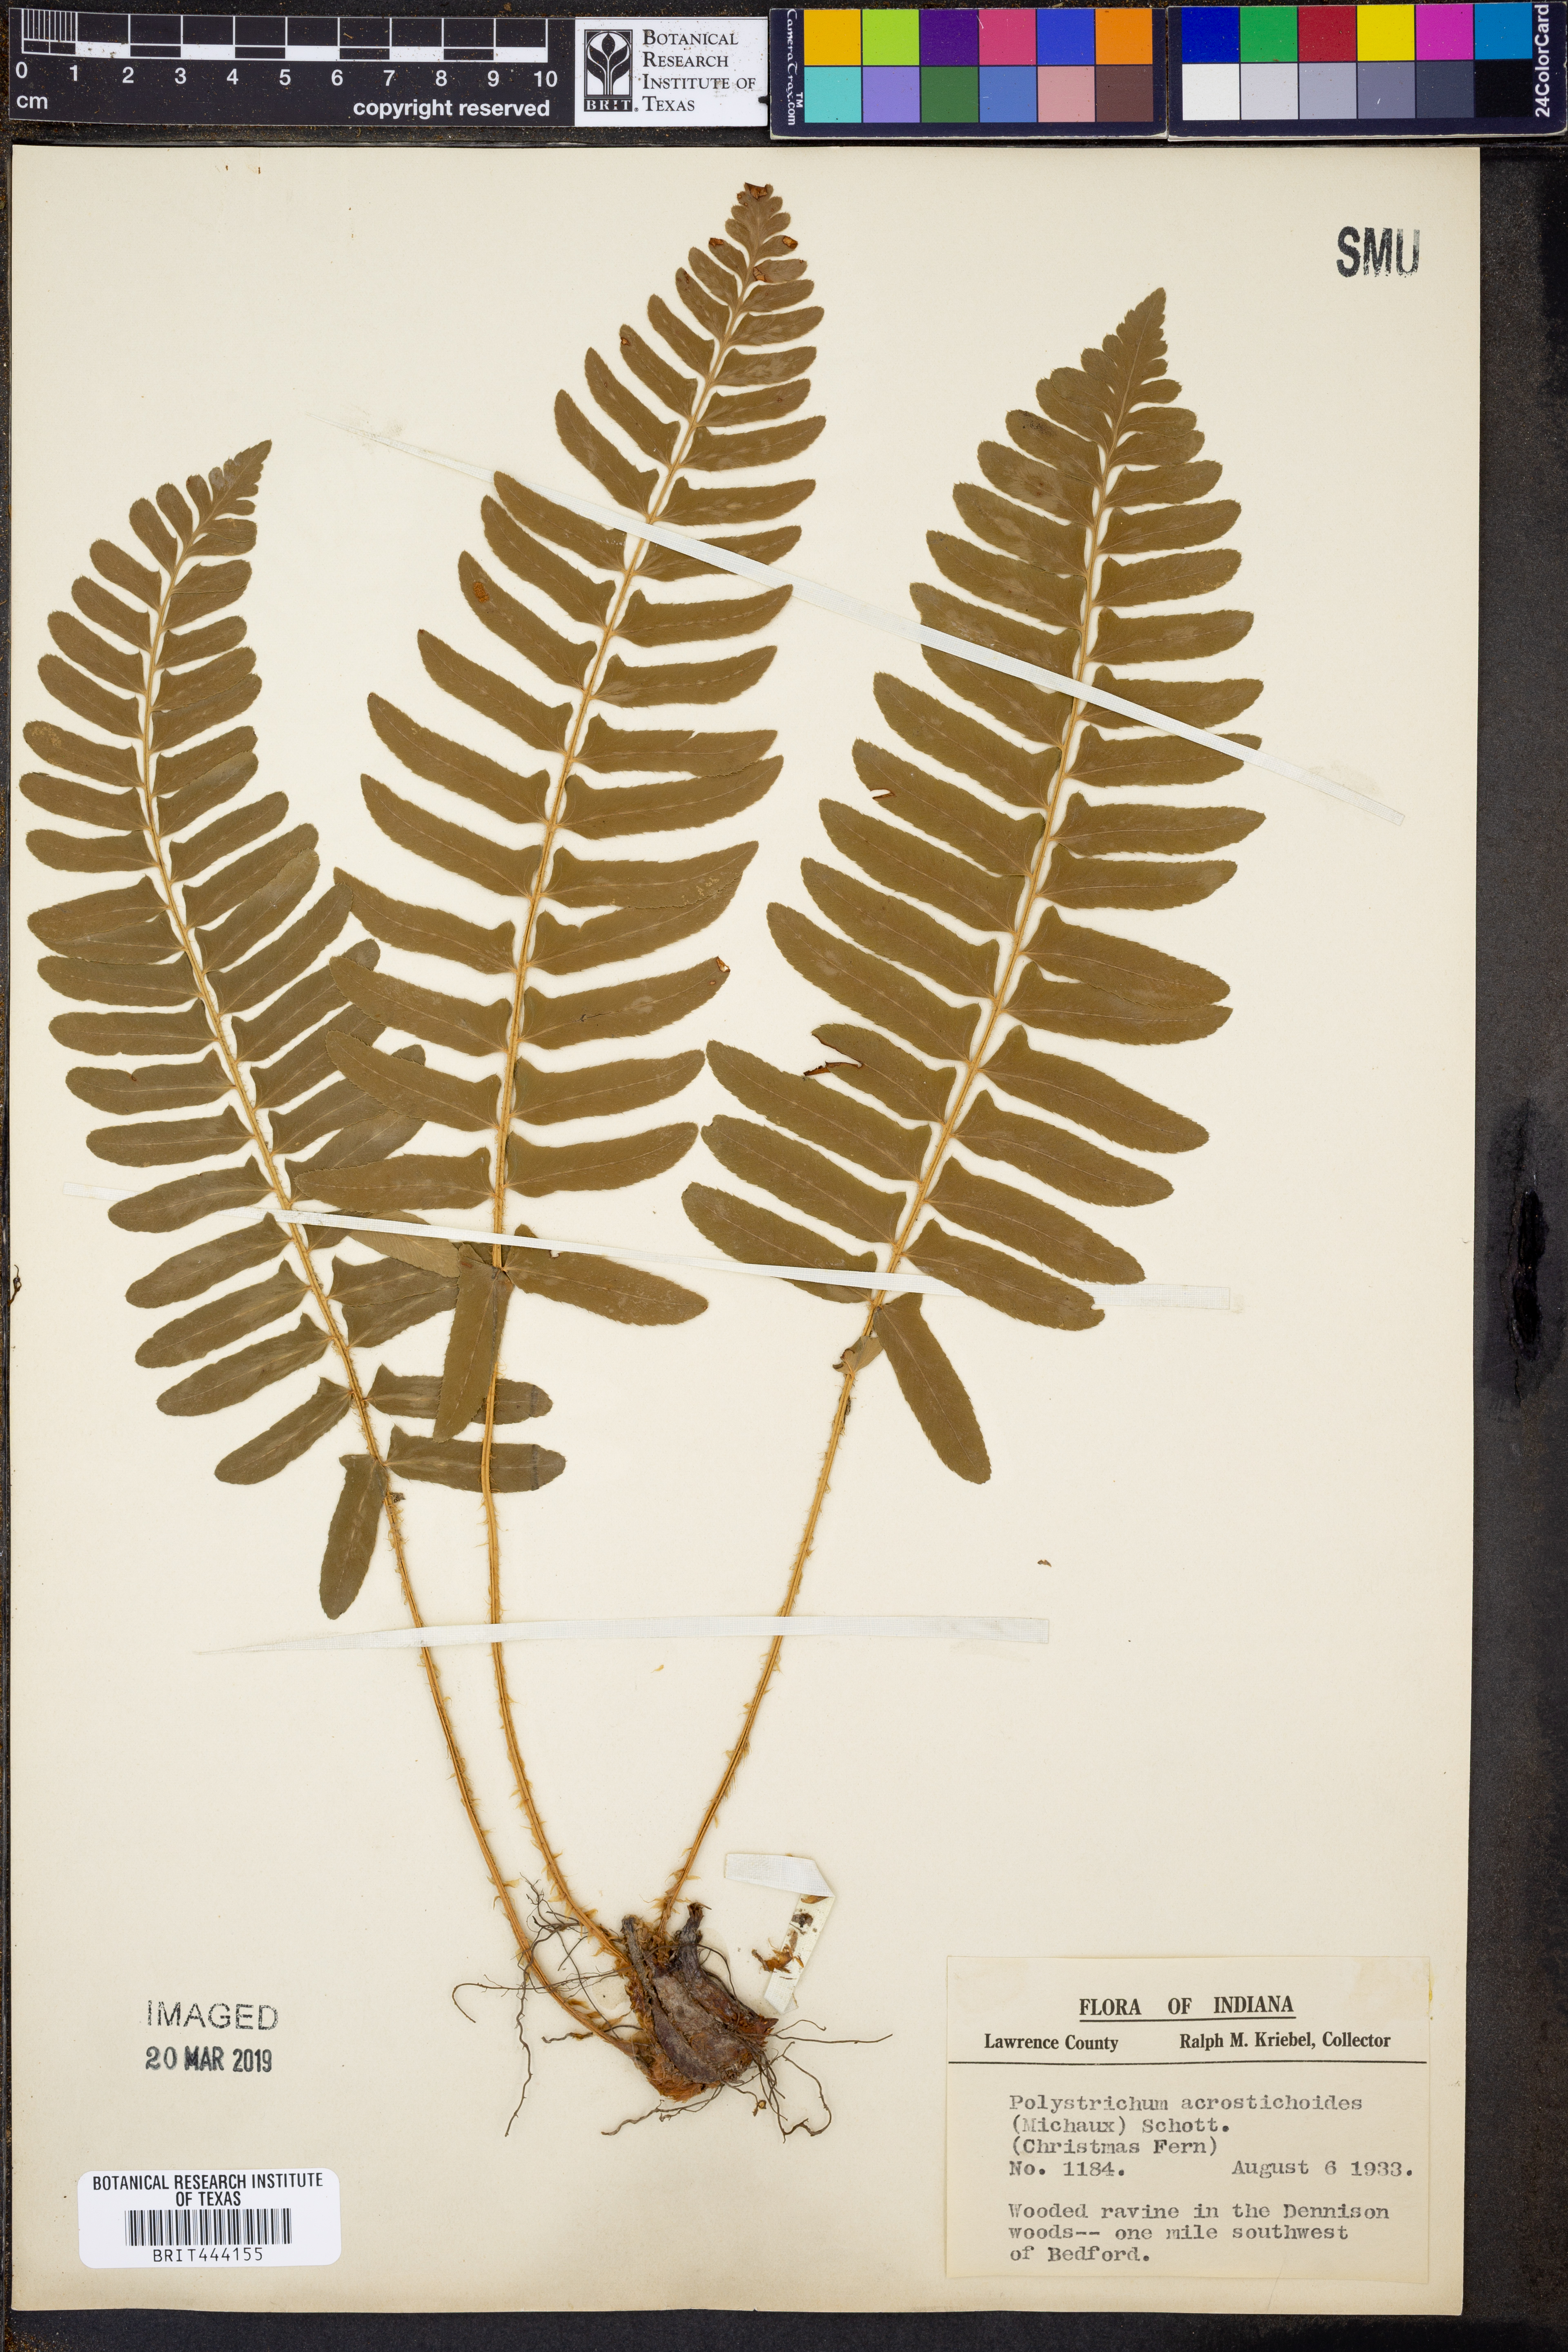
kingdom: Plantae
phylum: Tracheophyta
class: Polypodiopsida
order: Polypodiales
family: Dryopteridaceae
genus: Polystichum
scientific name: Polystichum acrostichoides
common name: Christmas fern
